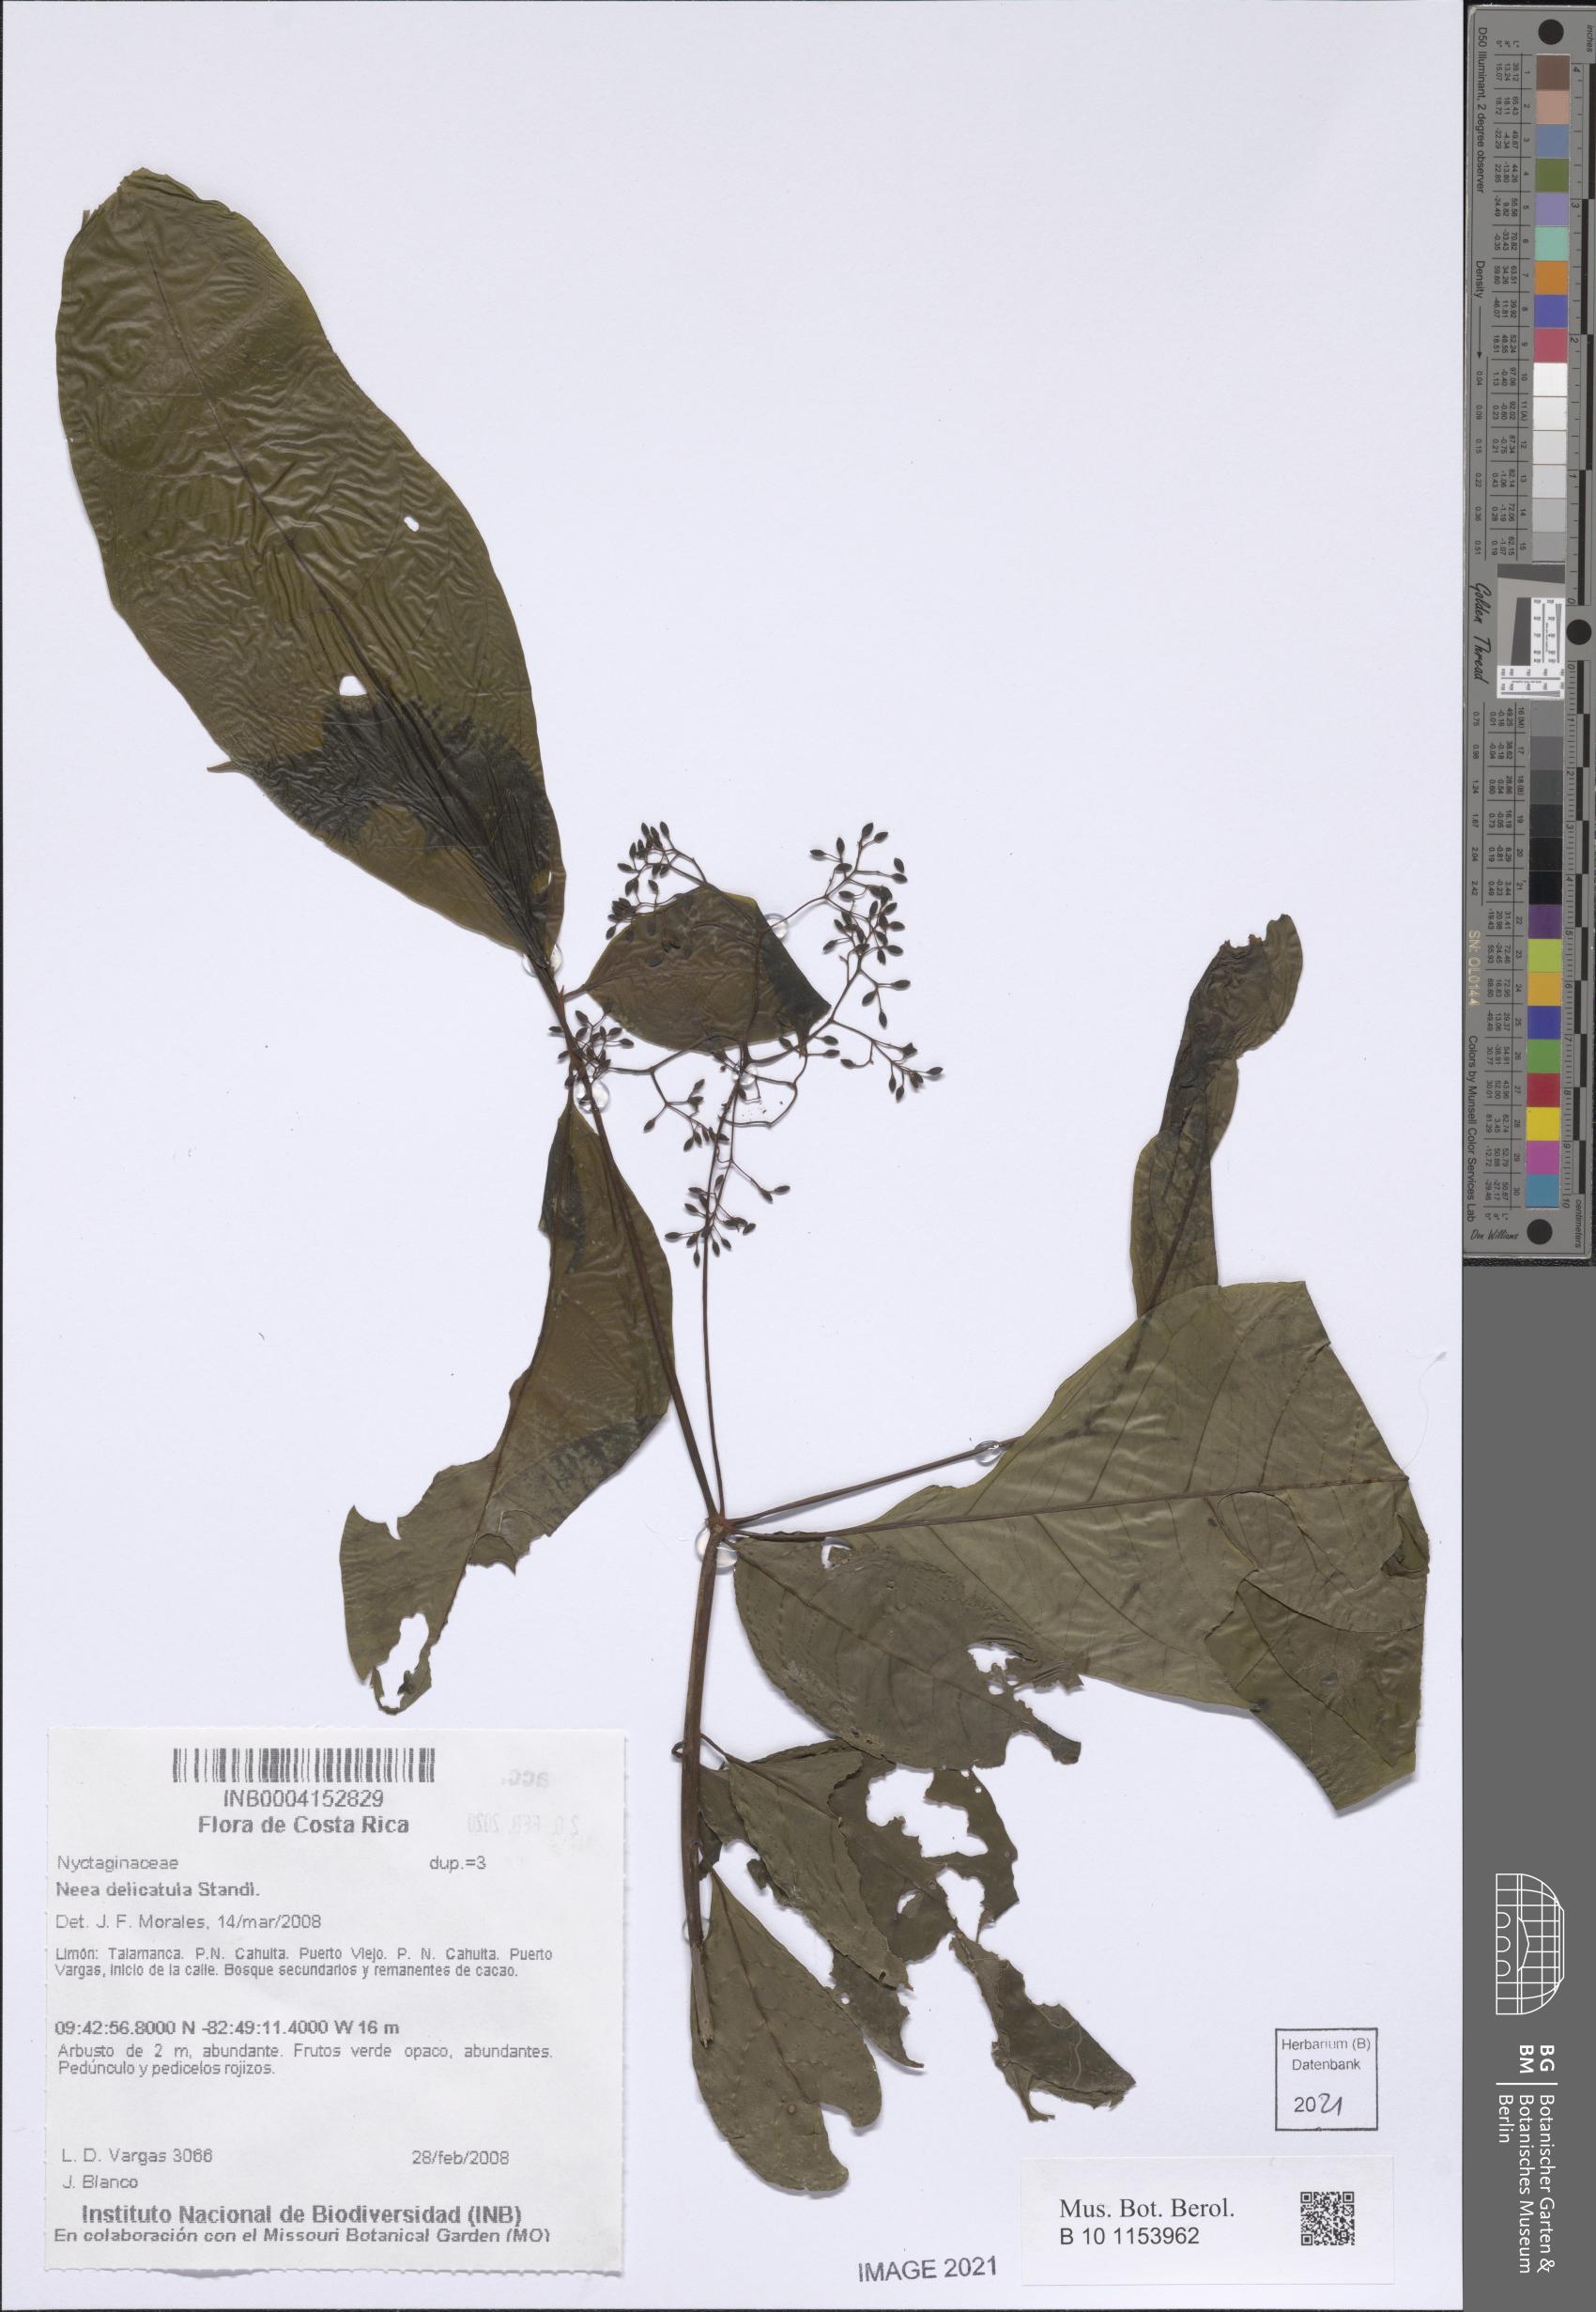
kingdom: Plantae
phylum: Tracheophyta
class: Magnoliopsida
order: Caryophyllales
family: Nyctaginaceae
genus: Neea
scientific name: Neea delicatula
